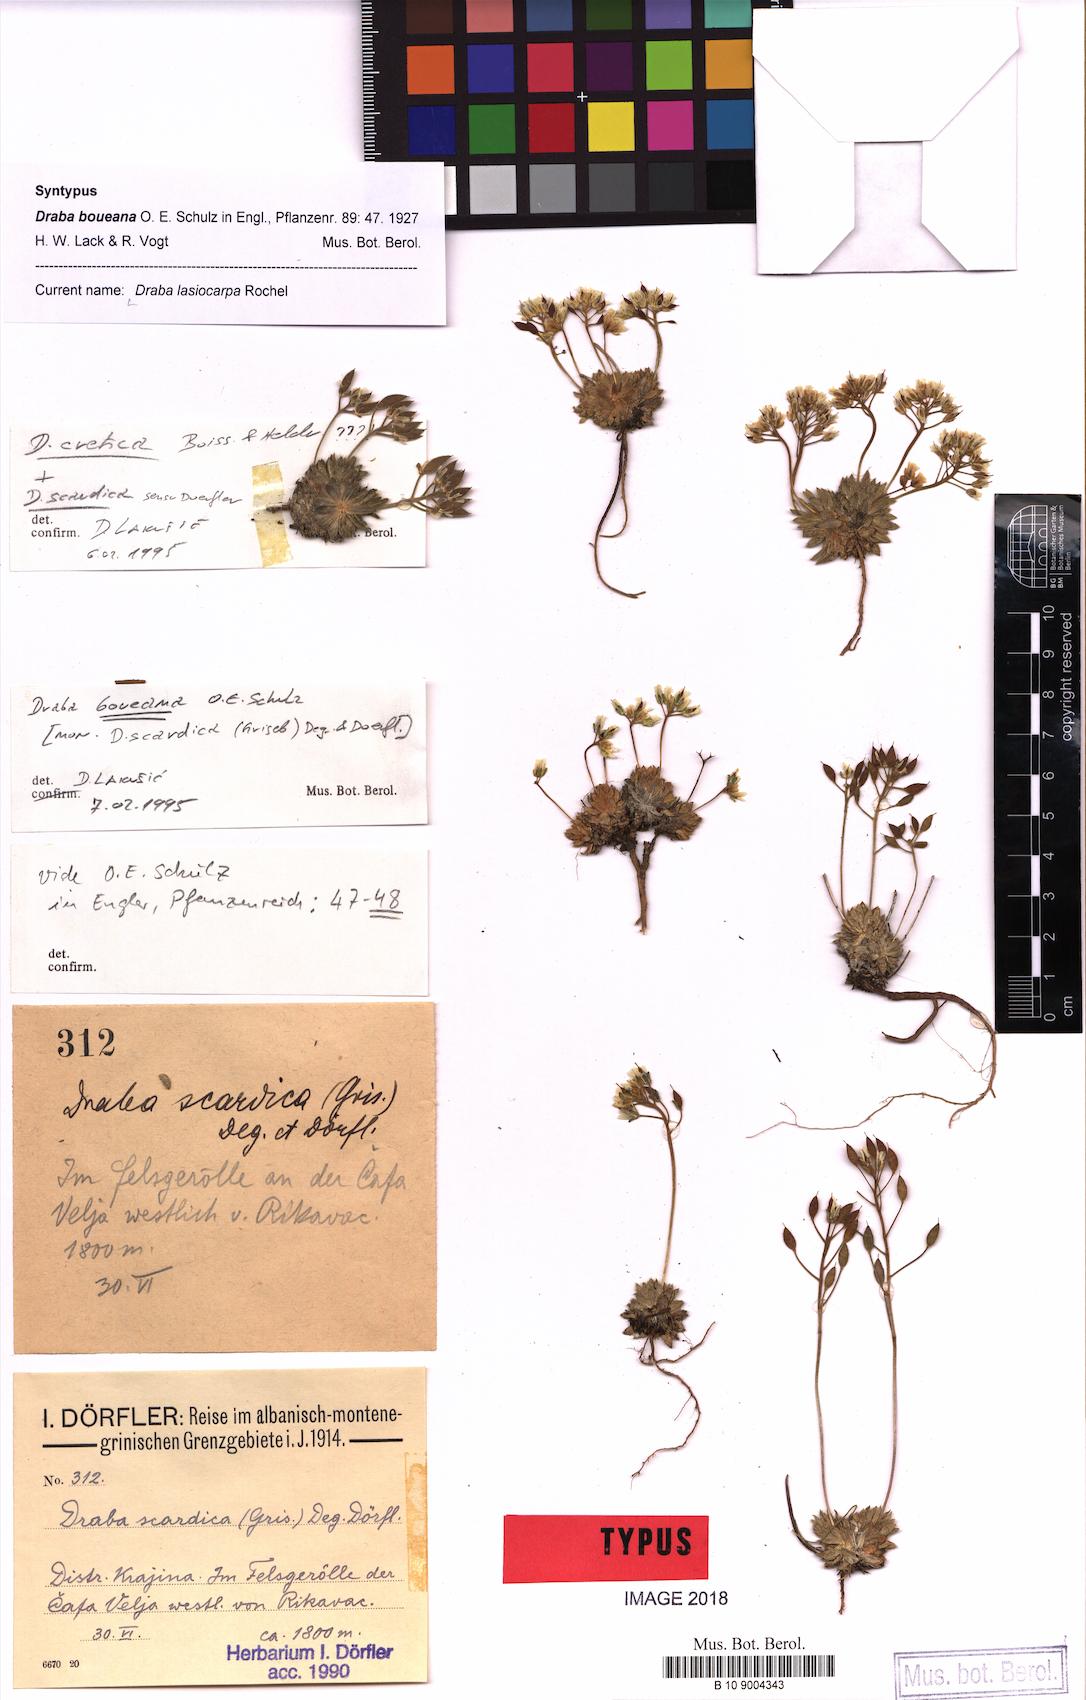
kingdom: Plantae
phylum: Tracheophyta
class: Magnoliopsida
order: Brassicales
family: Brassicaceae
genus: Draba
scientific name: Draba lasiocarpa
